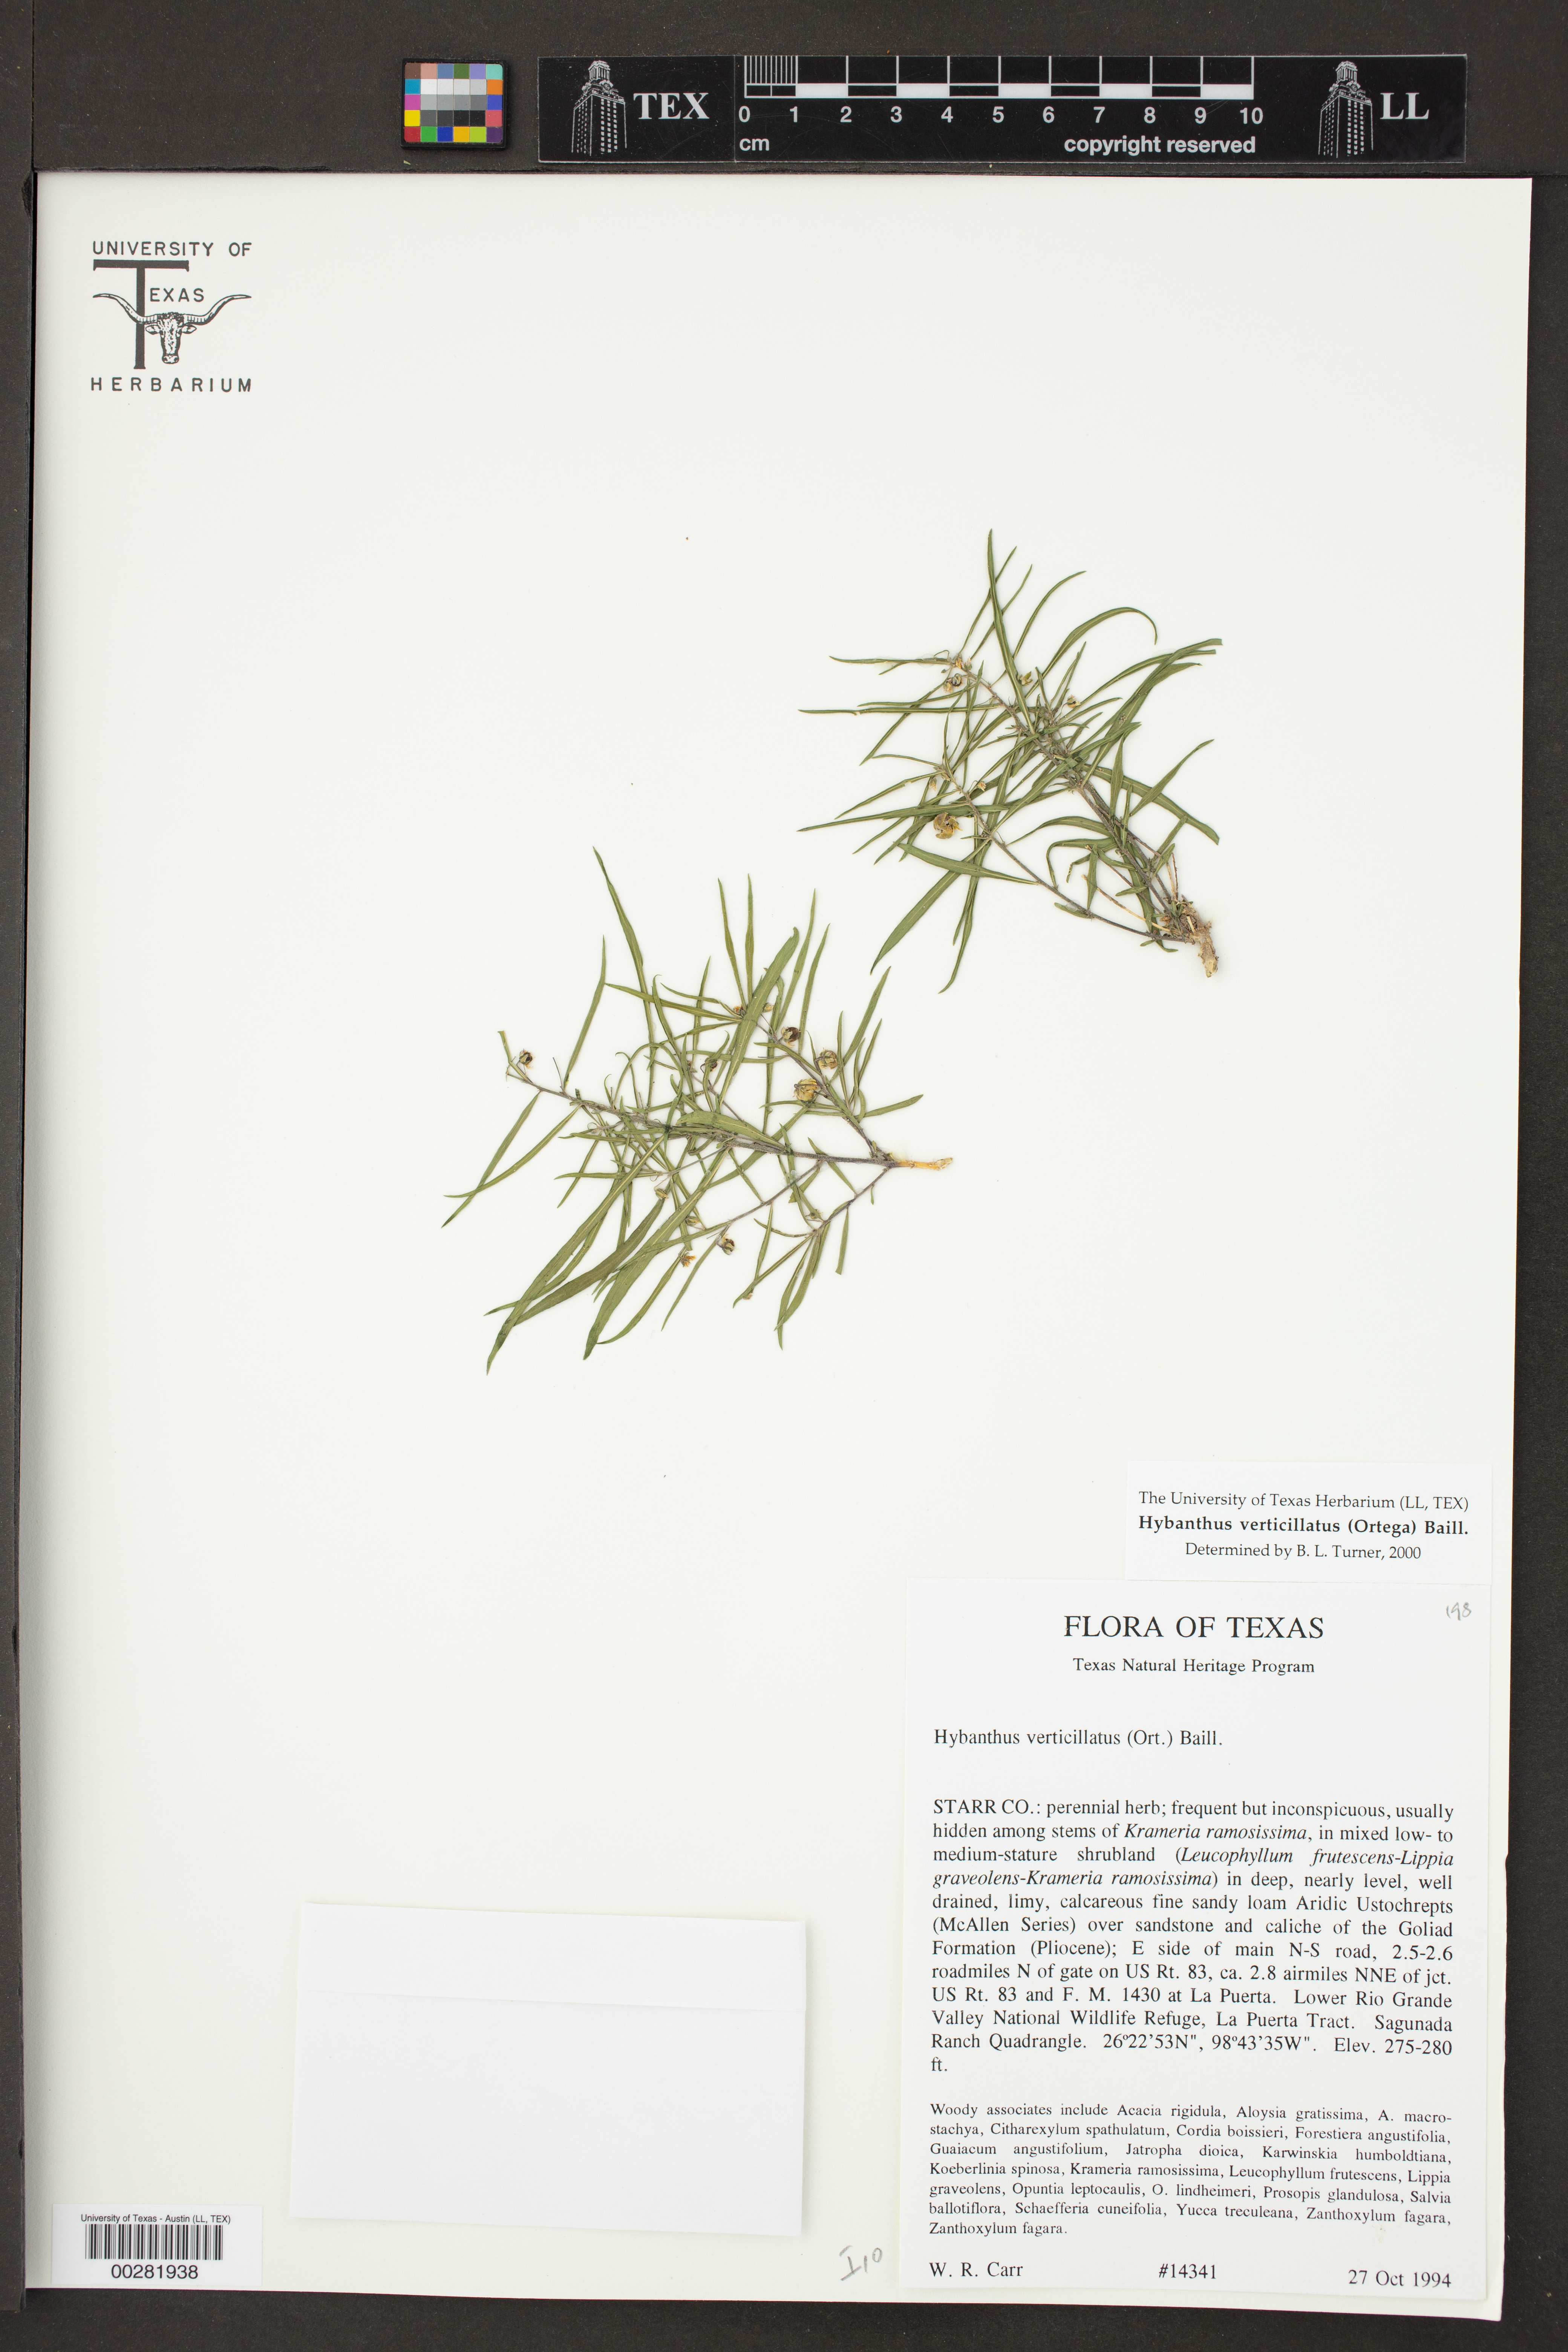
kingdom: Plantae
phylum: Tracheophyta
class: Magnoliopsida
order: Malpighiales
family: Violaceae
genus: Pombalia
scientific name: Pombalia verticillata
